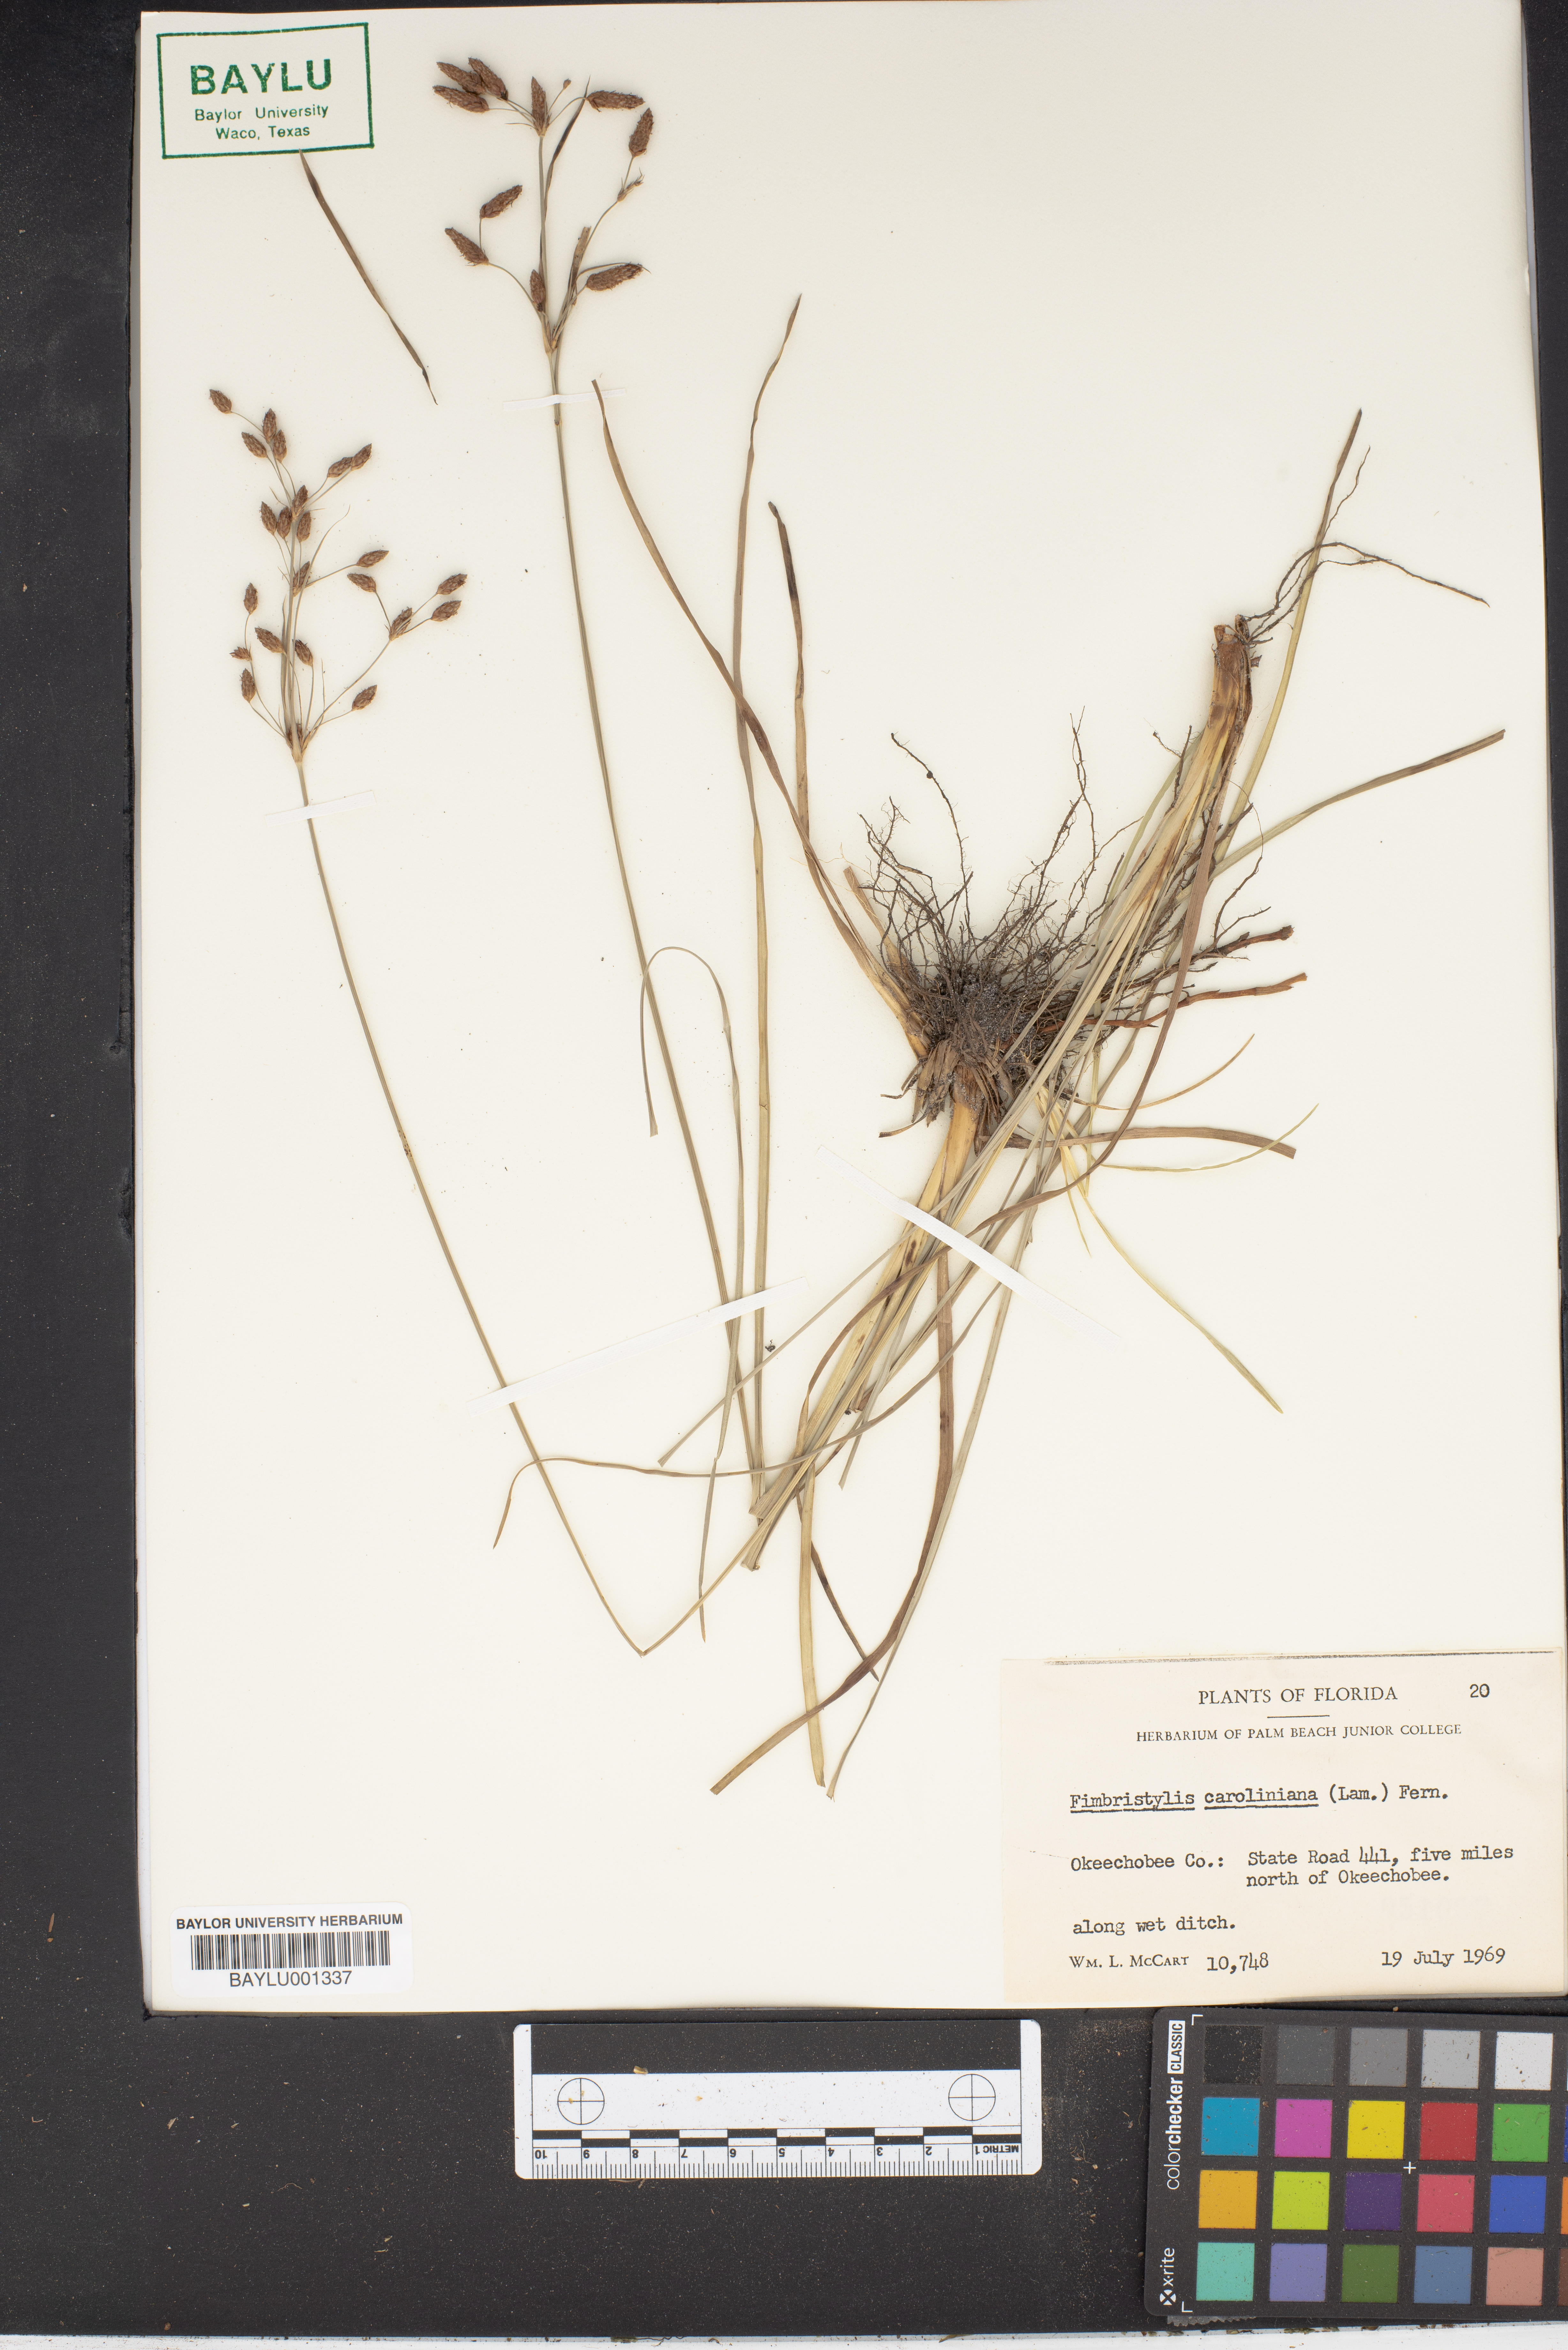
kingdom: Plantae
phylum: Tracheophyta
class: Liliopsida
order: Poales
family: Cyperaceae
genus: Fimbristylis
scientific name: Fimbristylis caroliniana
